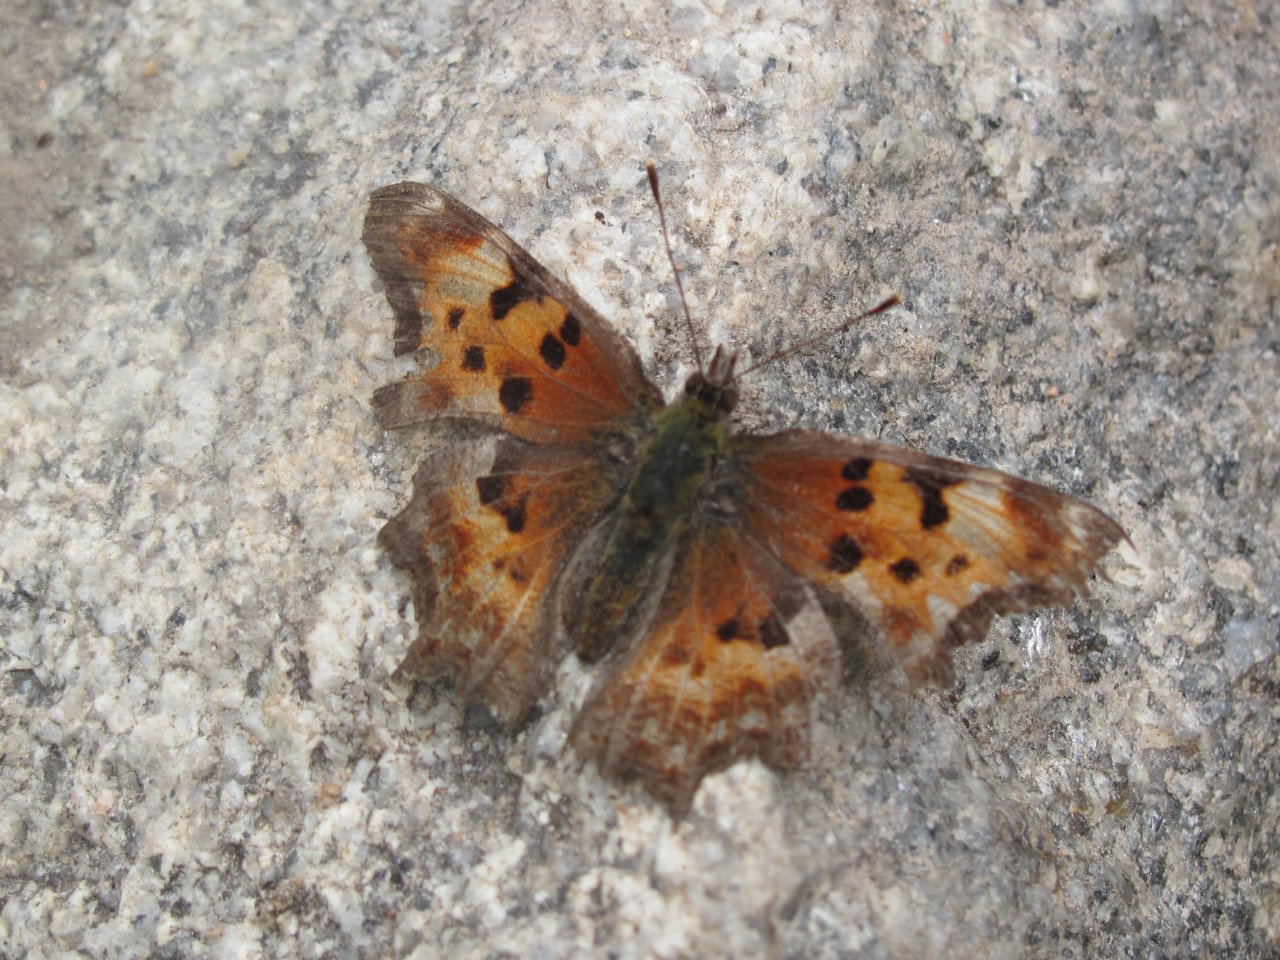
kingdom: Animalia
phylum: Arthropoda
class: Insecta
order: Lepidoptera
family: Nymphalidae
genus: Polygonia
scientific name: Polygonia gracilis
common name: Hoary Comma
